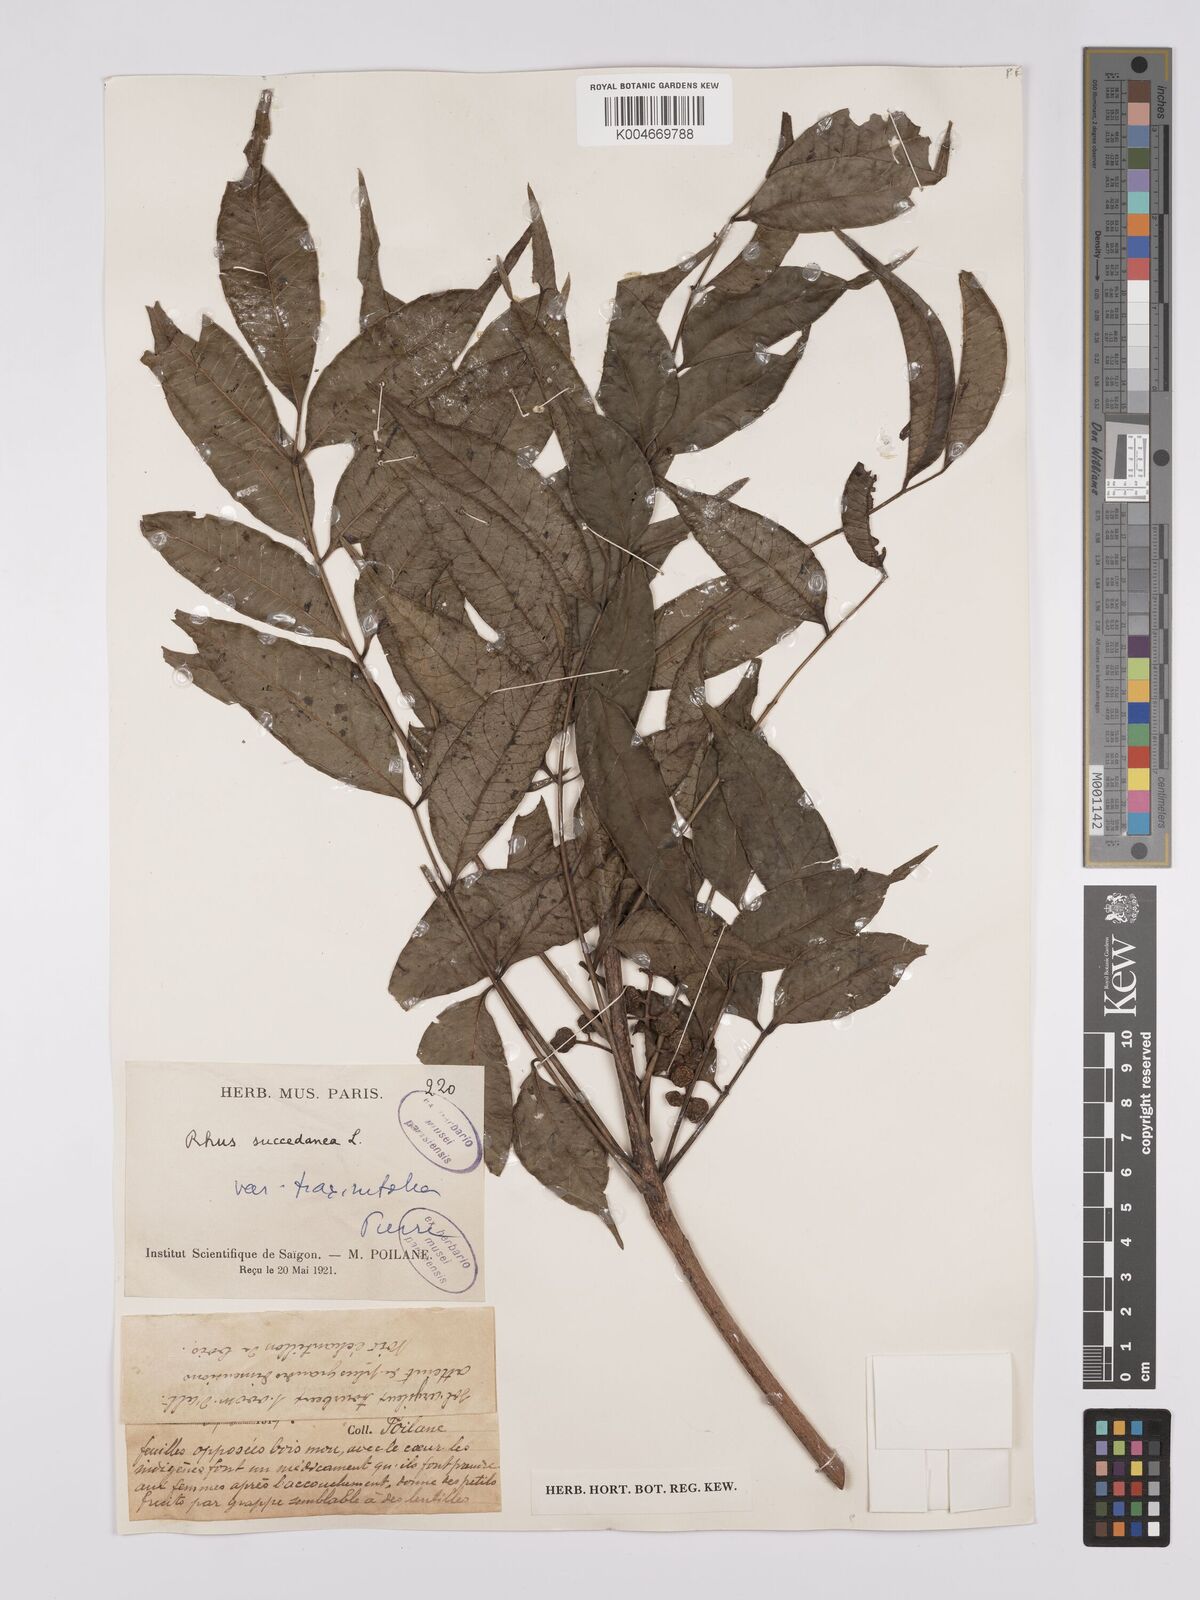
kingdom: Plantae
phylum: Tracheophyta
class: Magnoliopsida
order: Sapindales
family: Anacardiaceae
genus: Toxicodendron
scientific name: Toxicodendron succedaneum
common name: Wax tree
